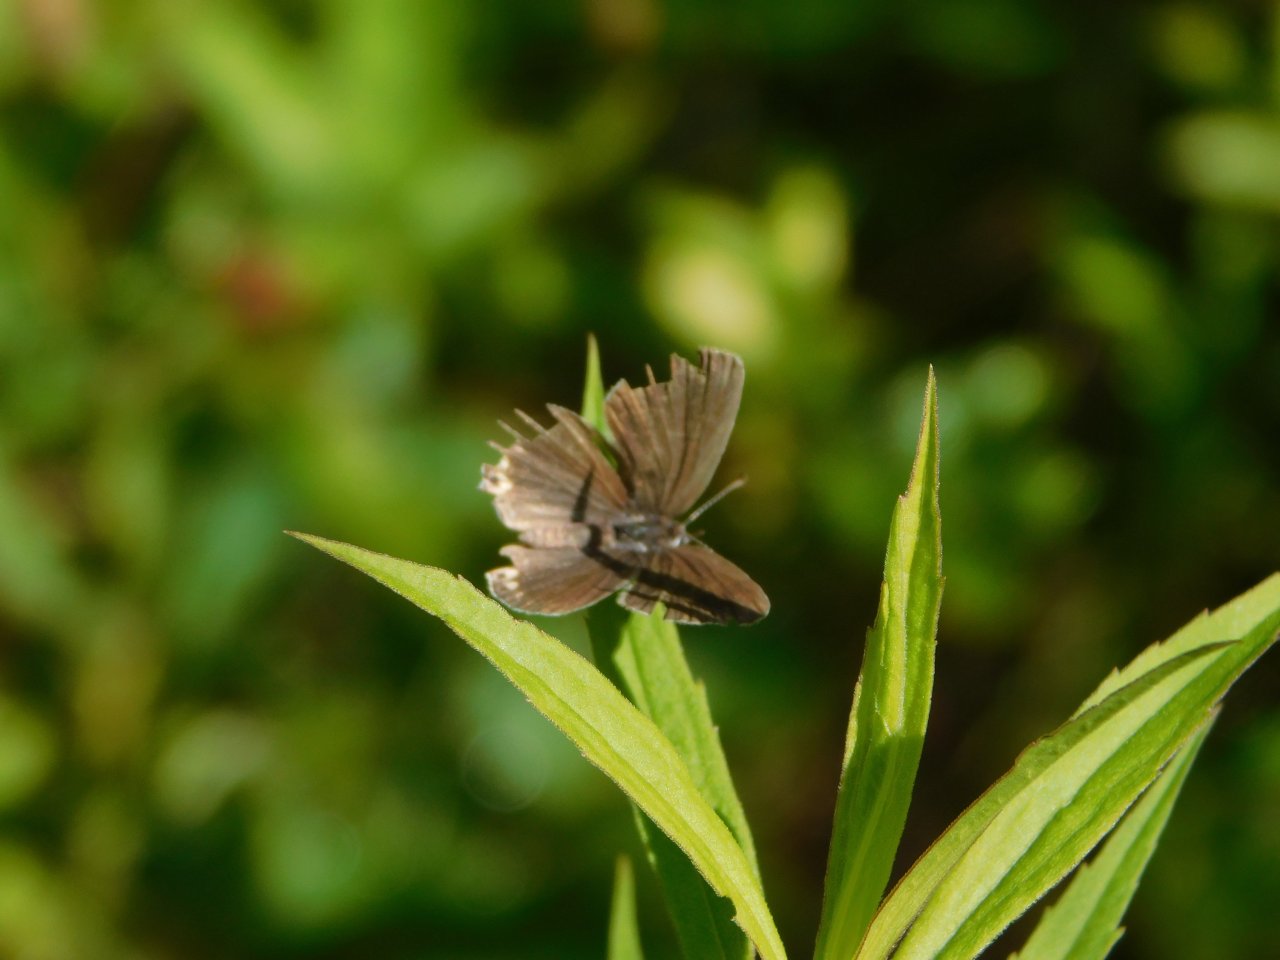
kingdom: Animalia
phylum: Arthropoda
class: Insecta
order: Lepidoptera
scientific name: Lepidoptera
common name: Butterflies
